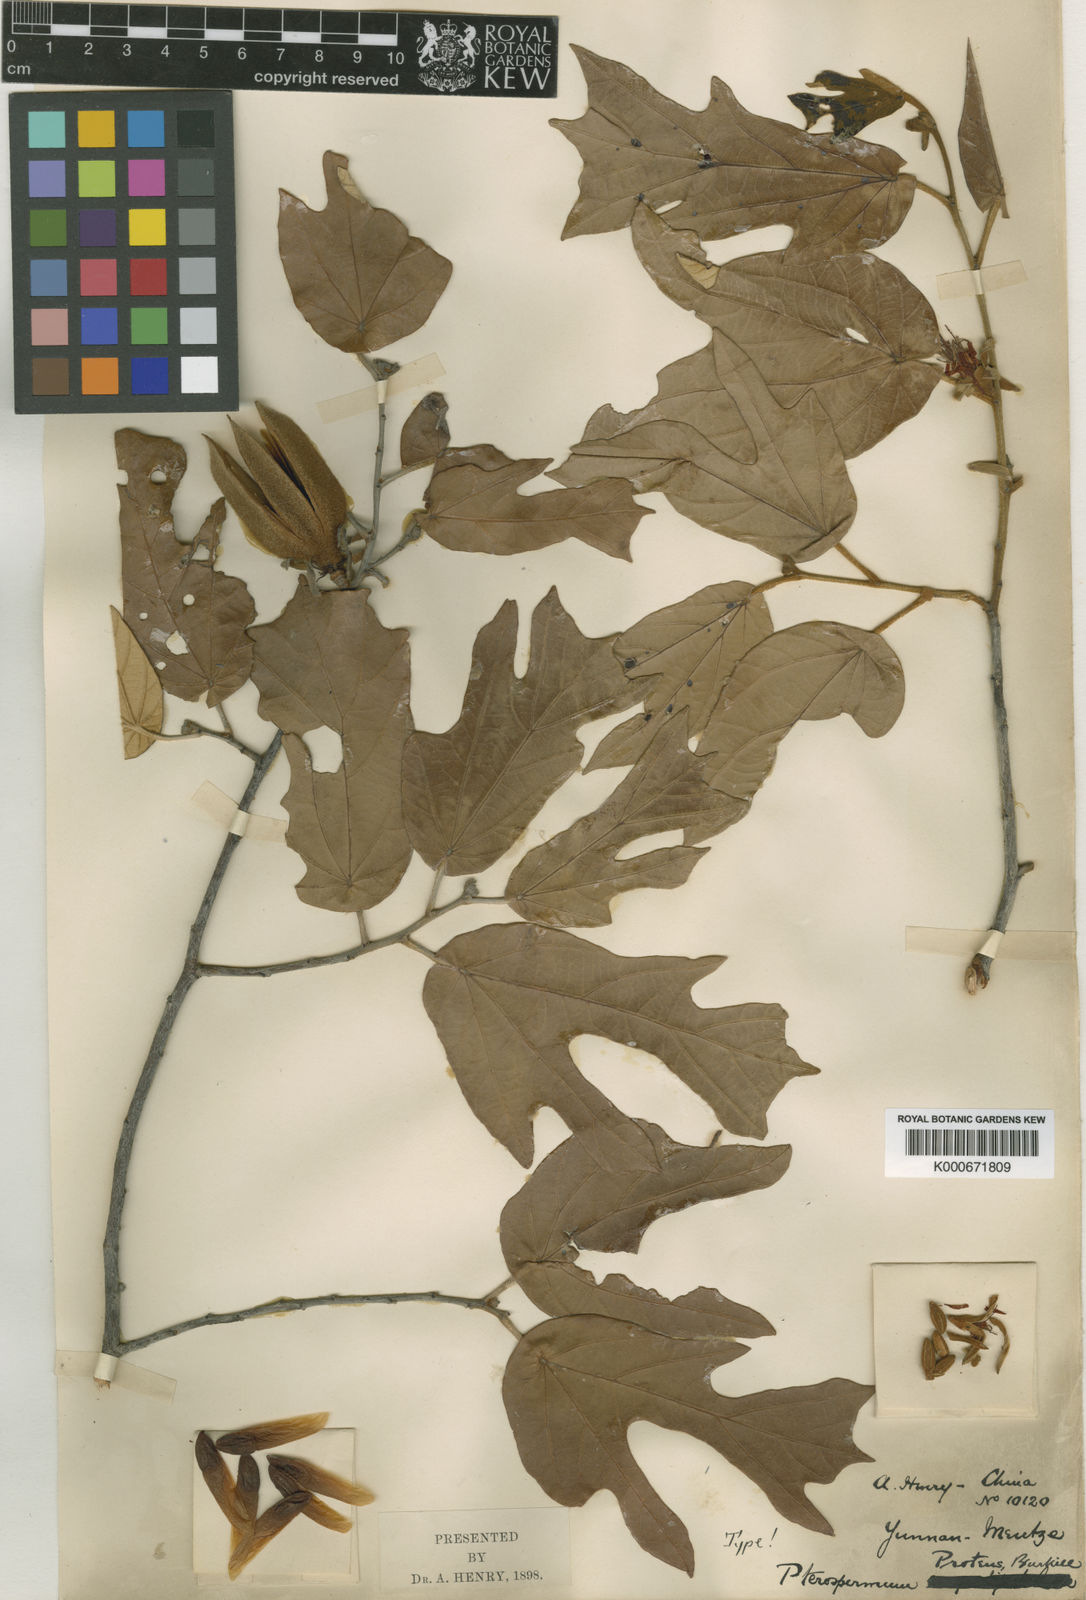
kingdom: Plantae
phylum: Tracheophyta
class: Magnoliopsida
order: Malvales
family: Malvaceae
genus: Pterospermum
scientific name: Pterospermum proteus
